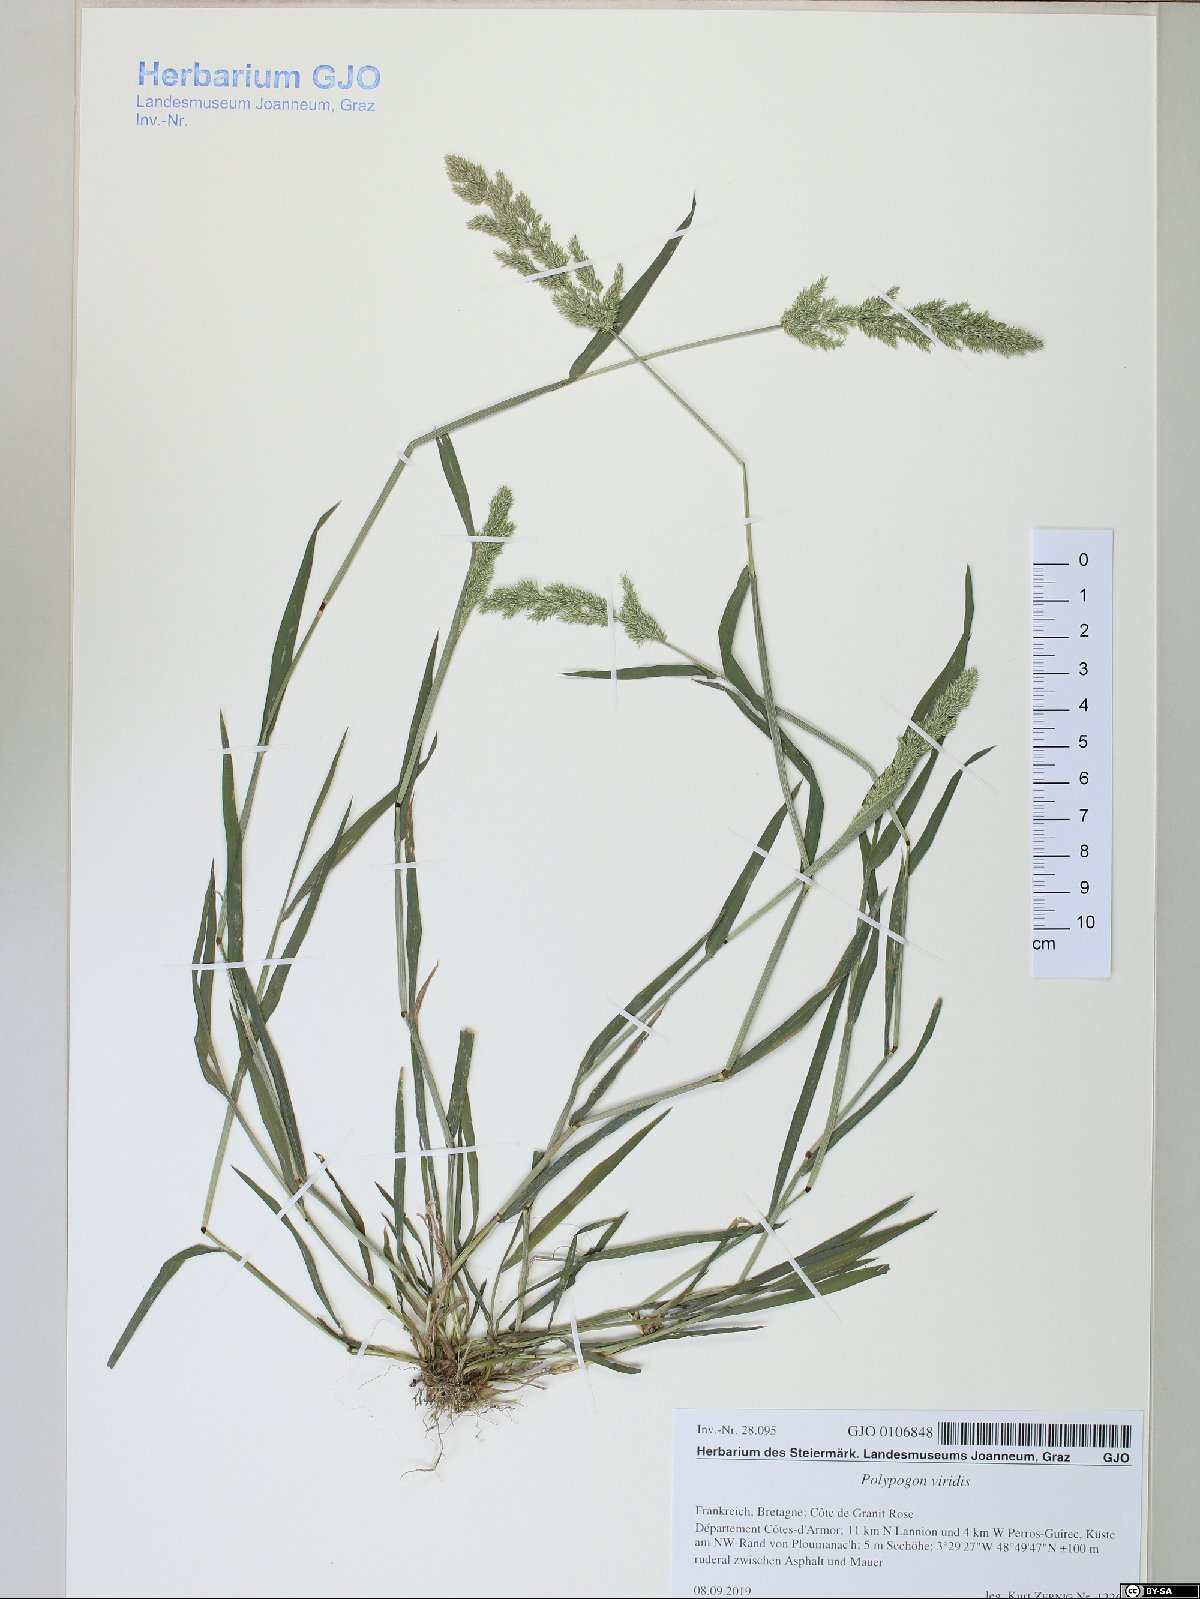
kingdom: Plantae
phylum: Tracheophyta
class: Liliopsida
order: Poales
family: Poaceae
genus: Polypogon
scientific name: Polypogon viridis
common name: Water bent
